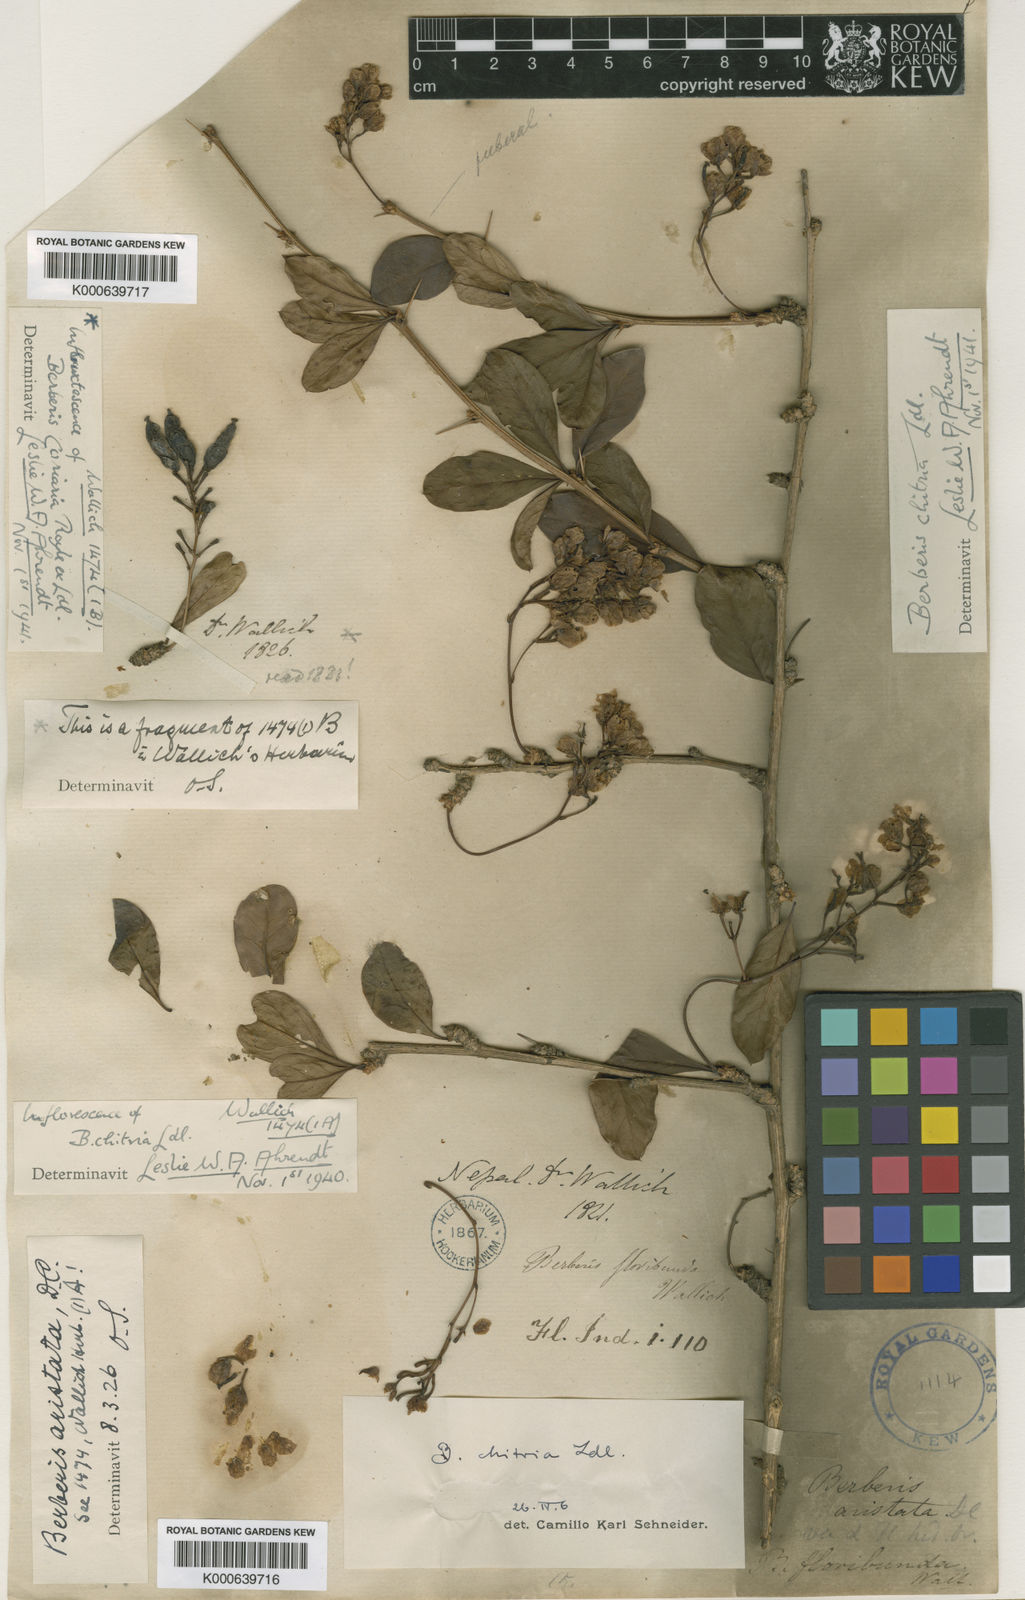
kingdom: Plantae
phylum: Tracheophyta
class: Magnoliopsida
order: Ranunculales
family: Berberidaceae
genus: Berberis
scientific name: Berberis chitria
